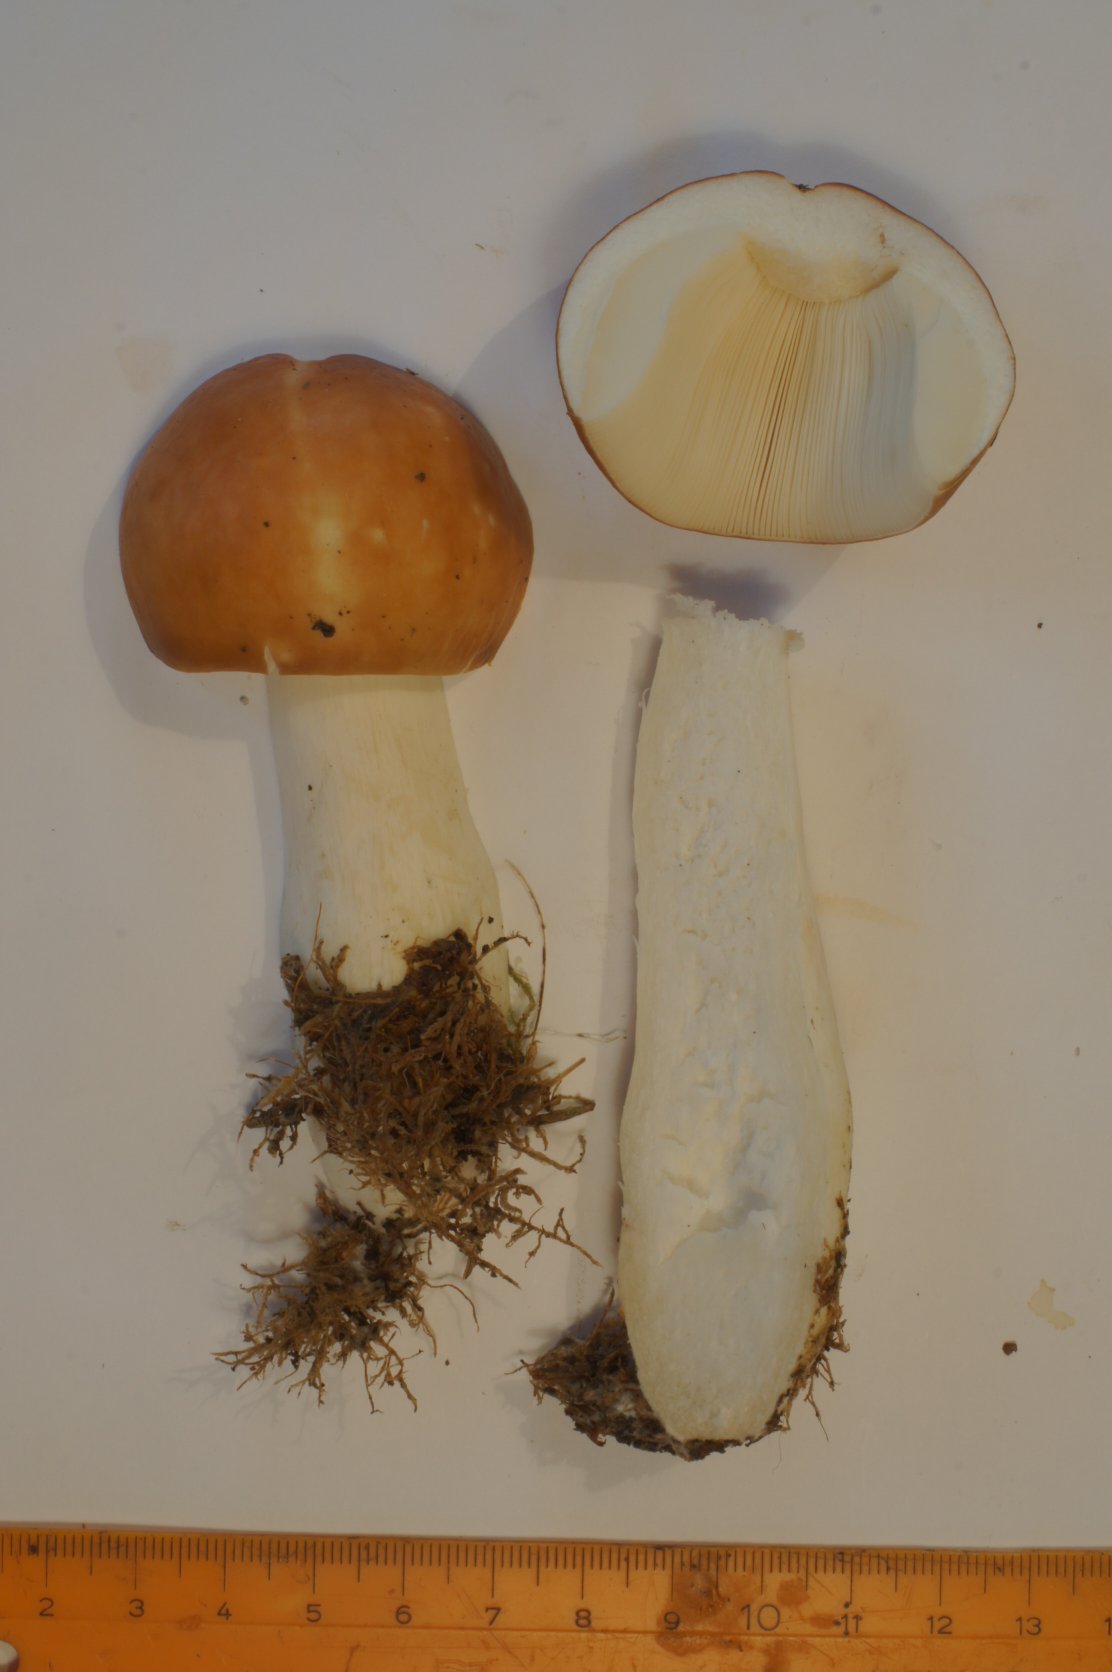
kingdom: Fungi
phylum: Basidiomycota
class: Agaricomycetes
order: Russulales
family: Russulaceae
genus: Russula
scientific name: Russula paludosa
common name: prægtig skørhat
